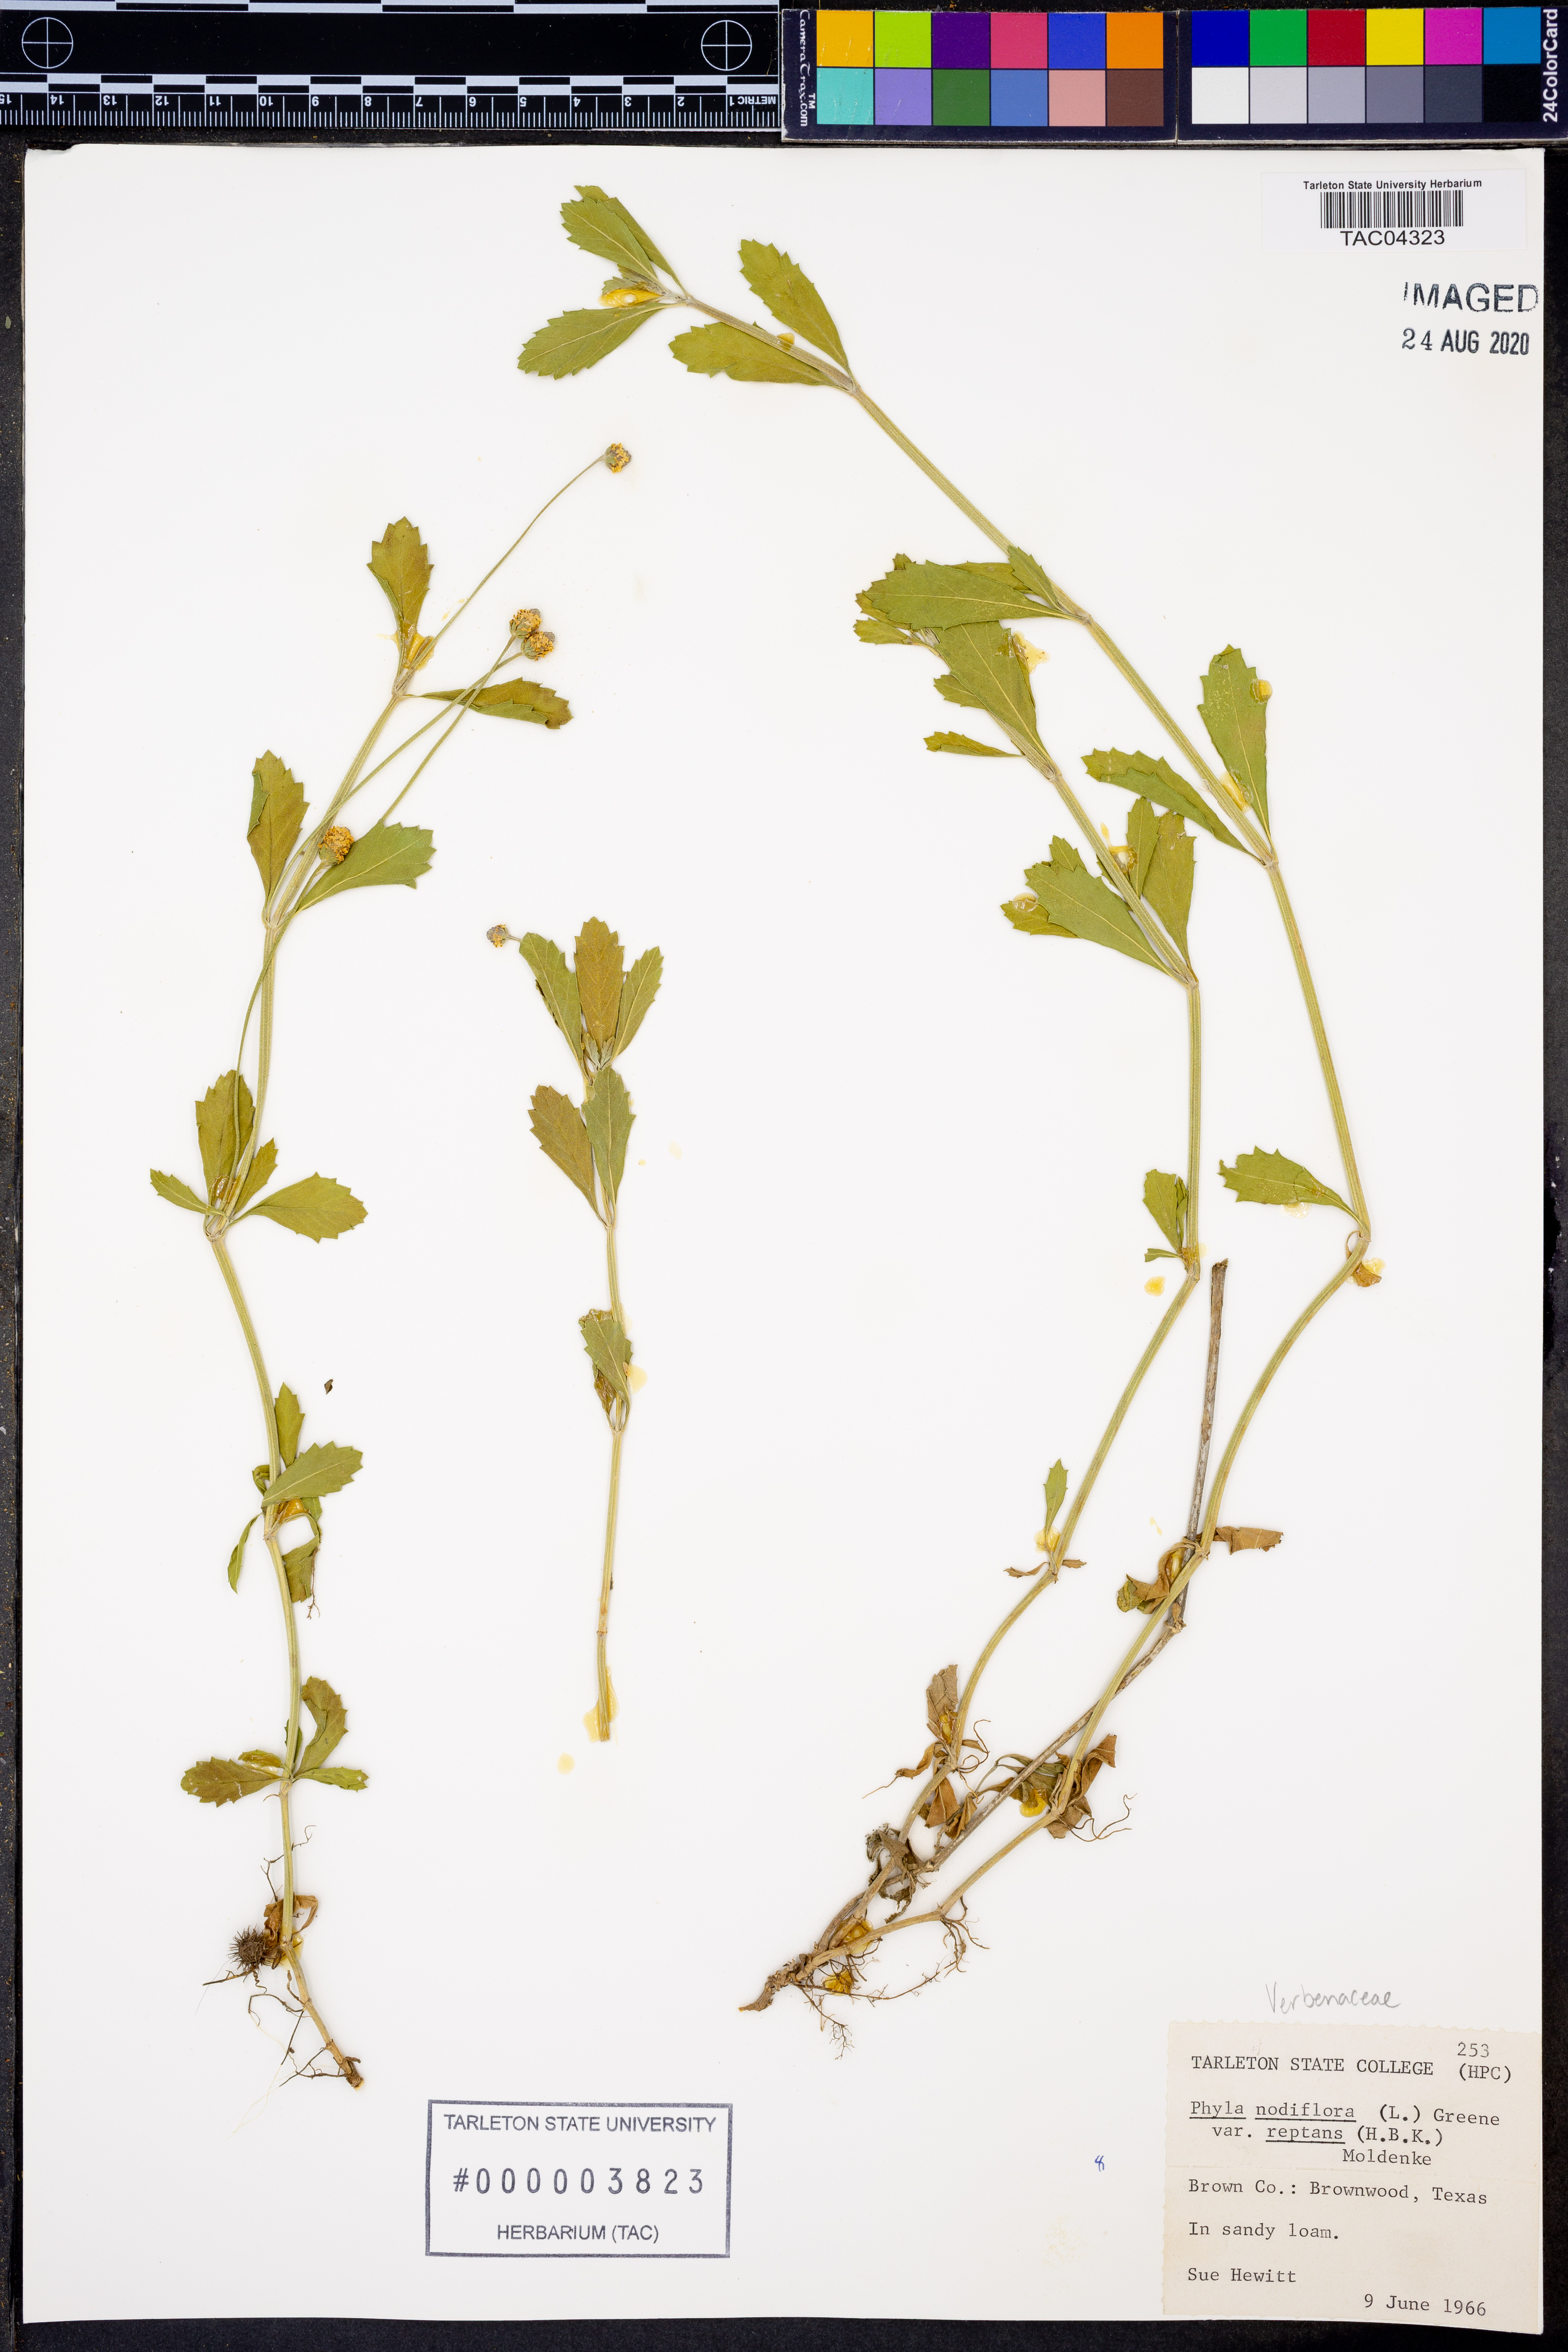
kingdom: Plantae
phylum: Tracheophyta
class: Magnoliopsida
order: Lamiales
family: Verbenaceae
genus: Phyla
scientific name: Phyla nodiflora
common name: Frogfruit
